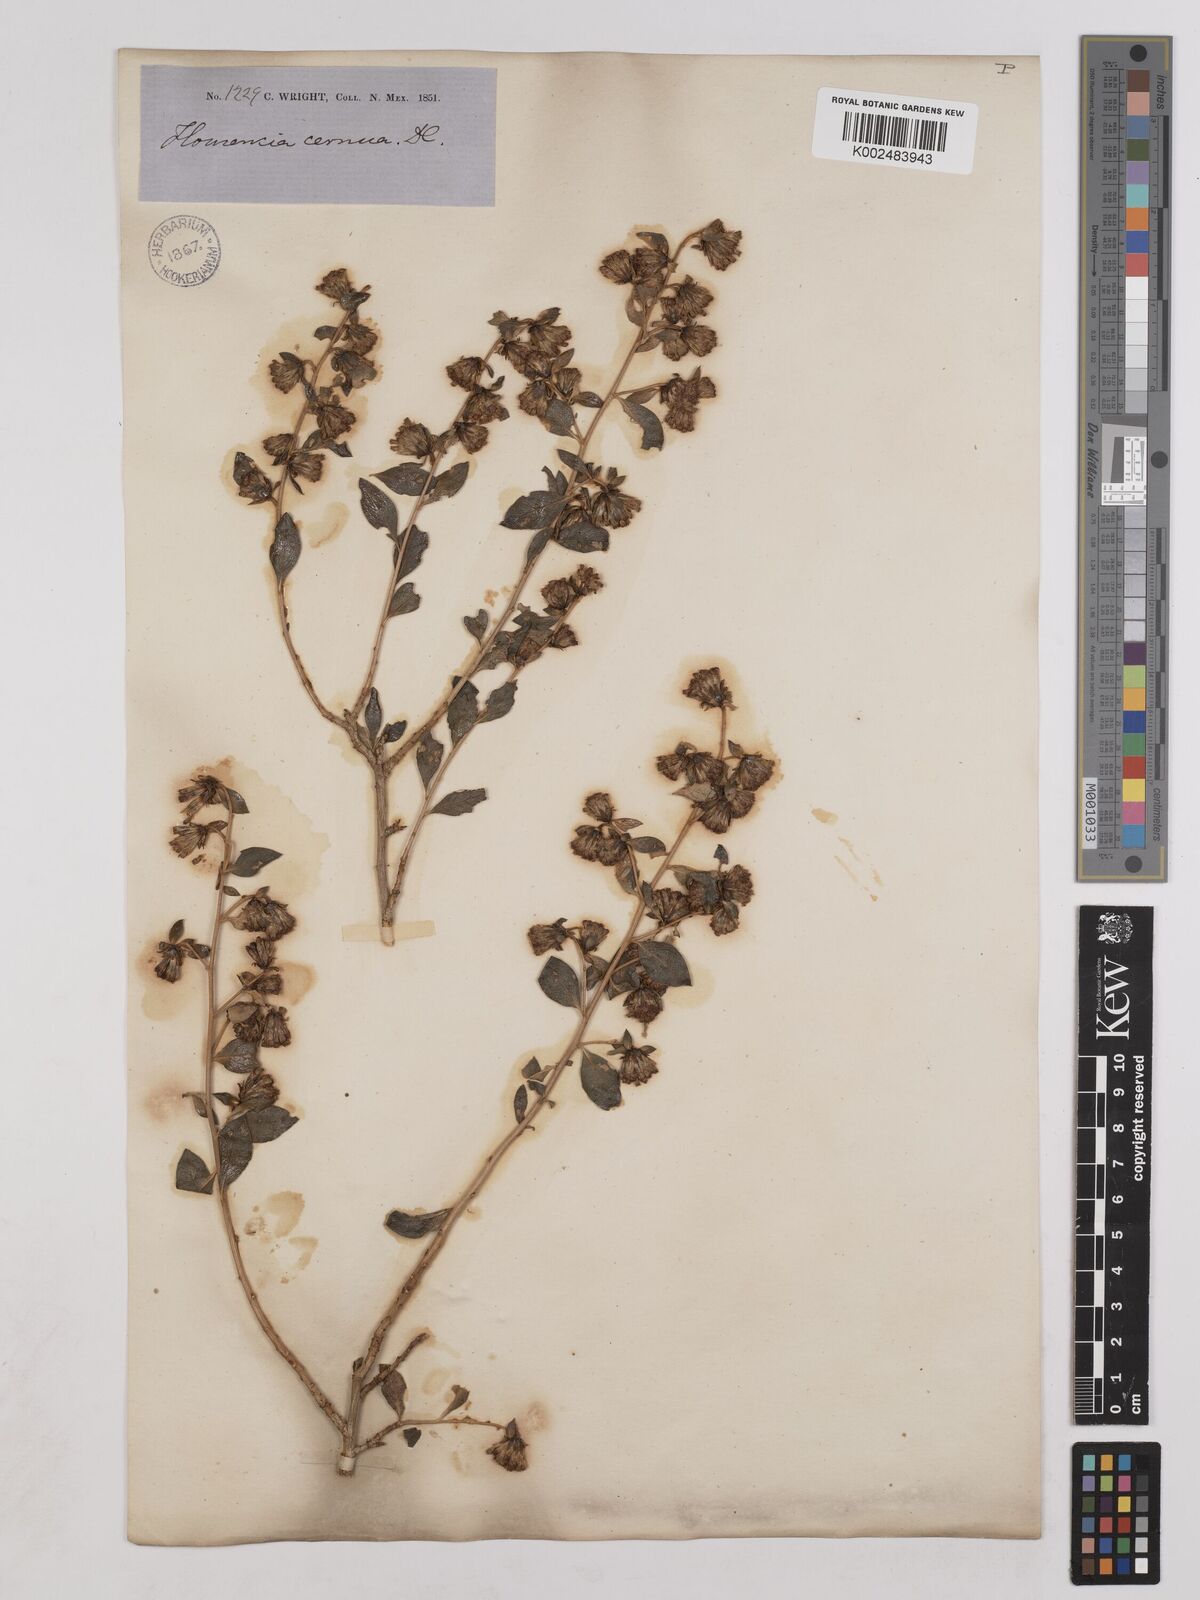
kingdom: Plantae
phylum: Tracheophyta
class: Magnoliopsida
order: Asterales
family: Asteraceae
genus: Flourensia
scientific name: Flourensia cernua
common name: Varnishbush
